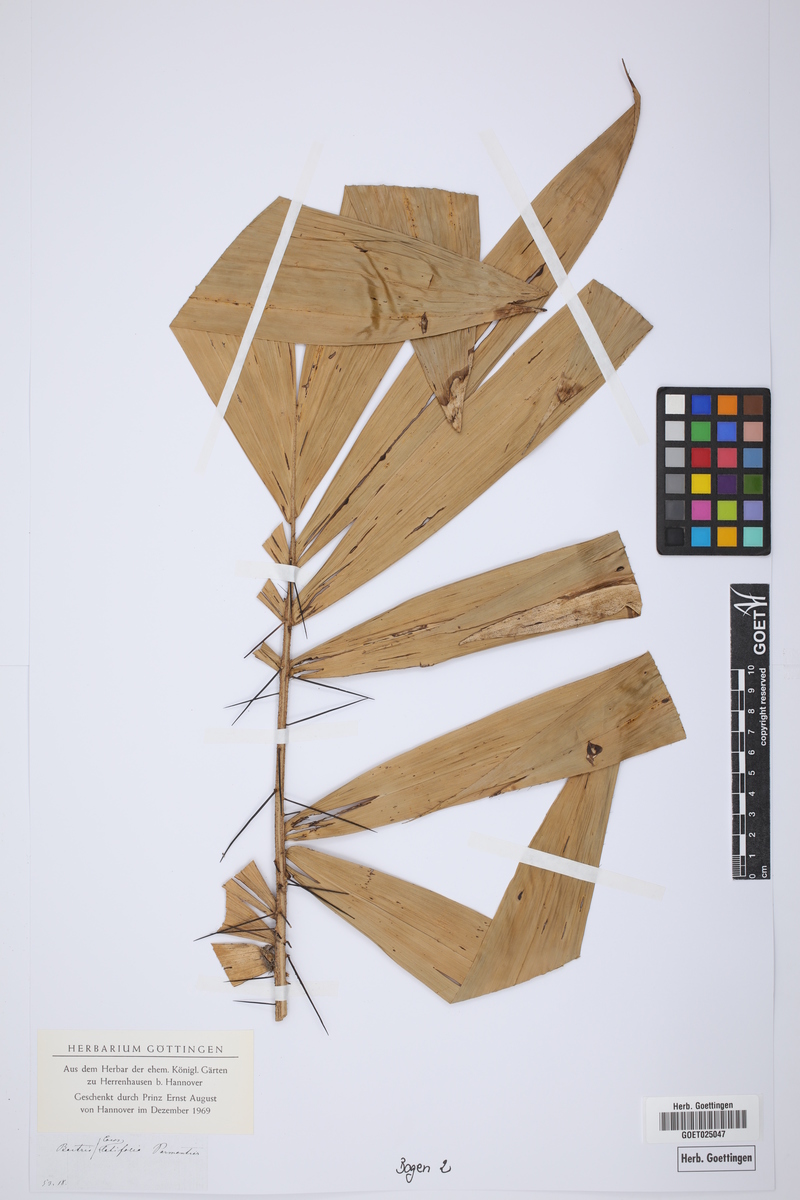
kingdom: Plantae
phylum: Tracheophyta
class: Liliopsida
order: Arecales
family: Arecaceae
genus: Bactris
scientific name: Bactris
